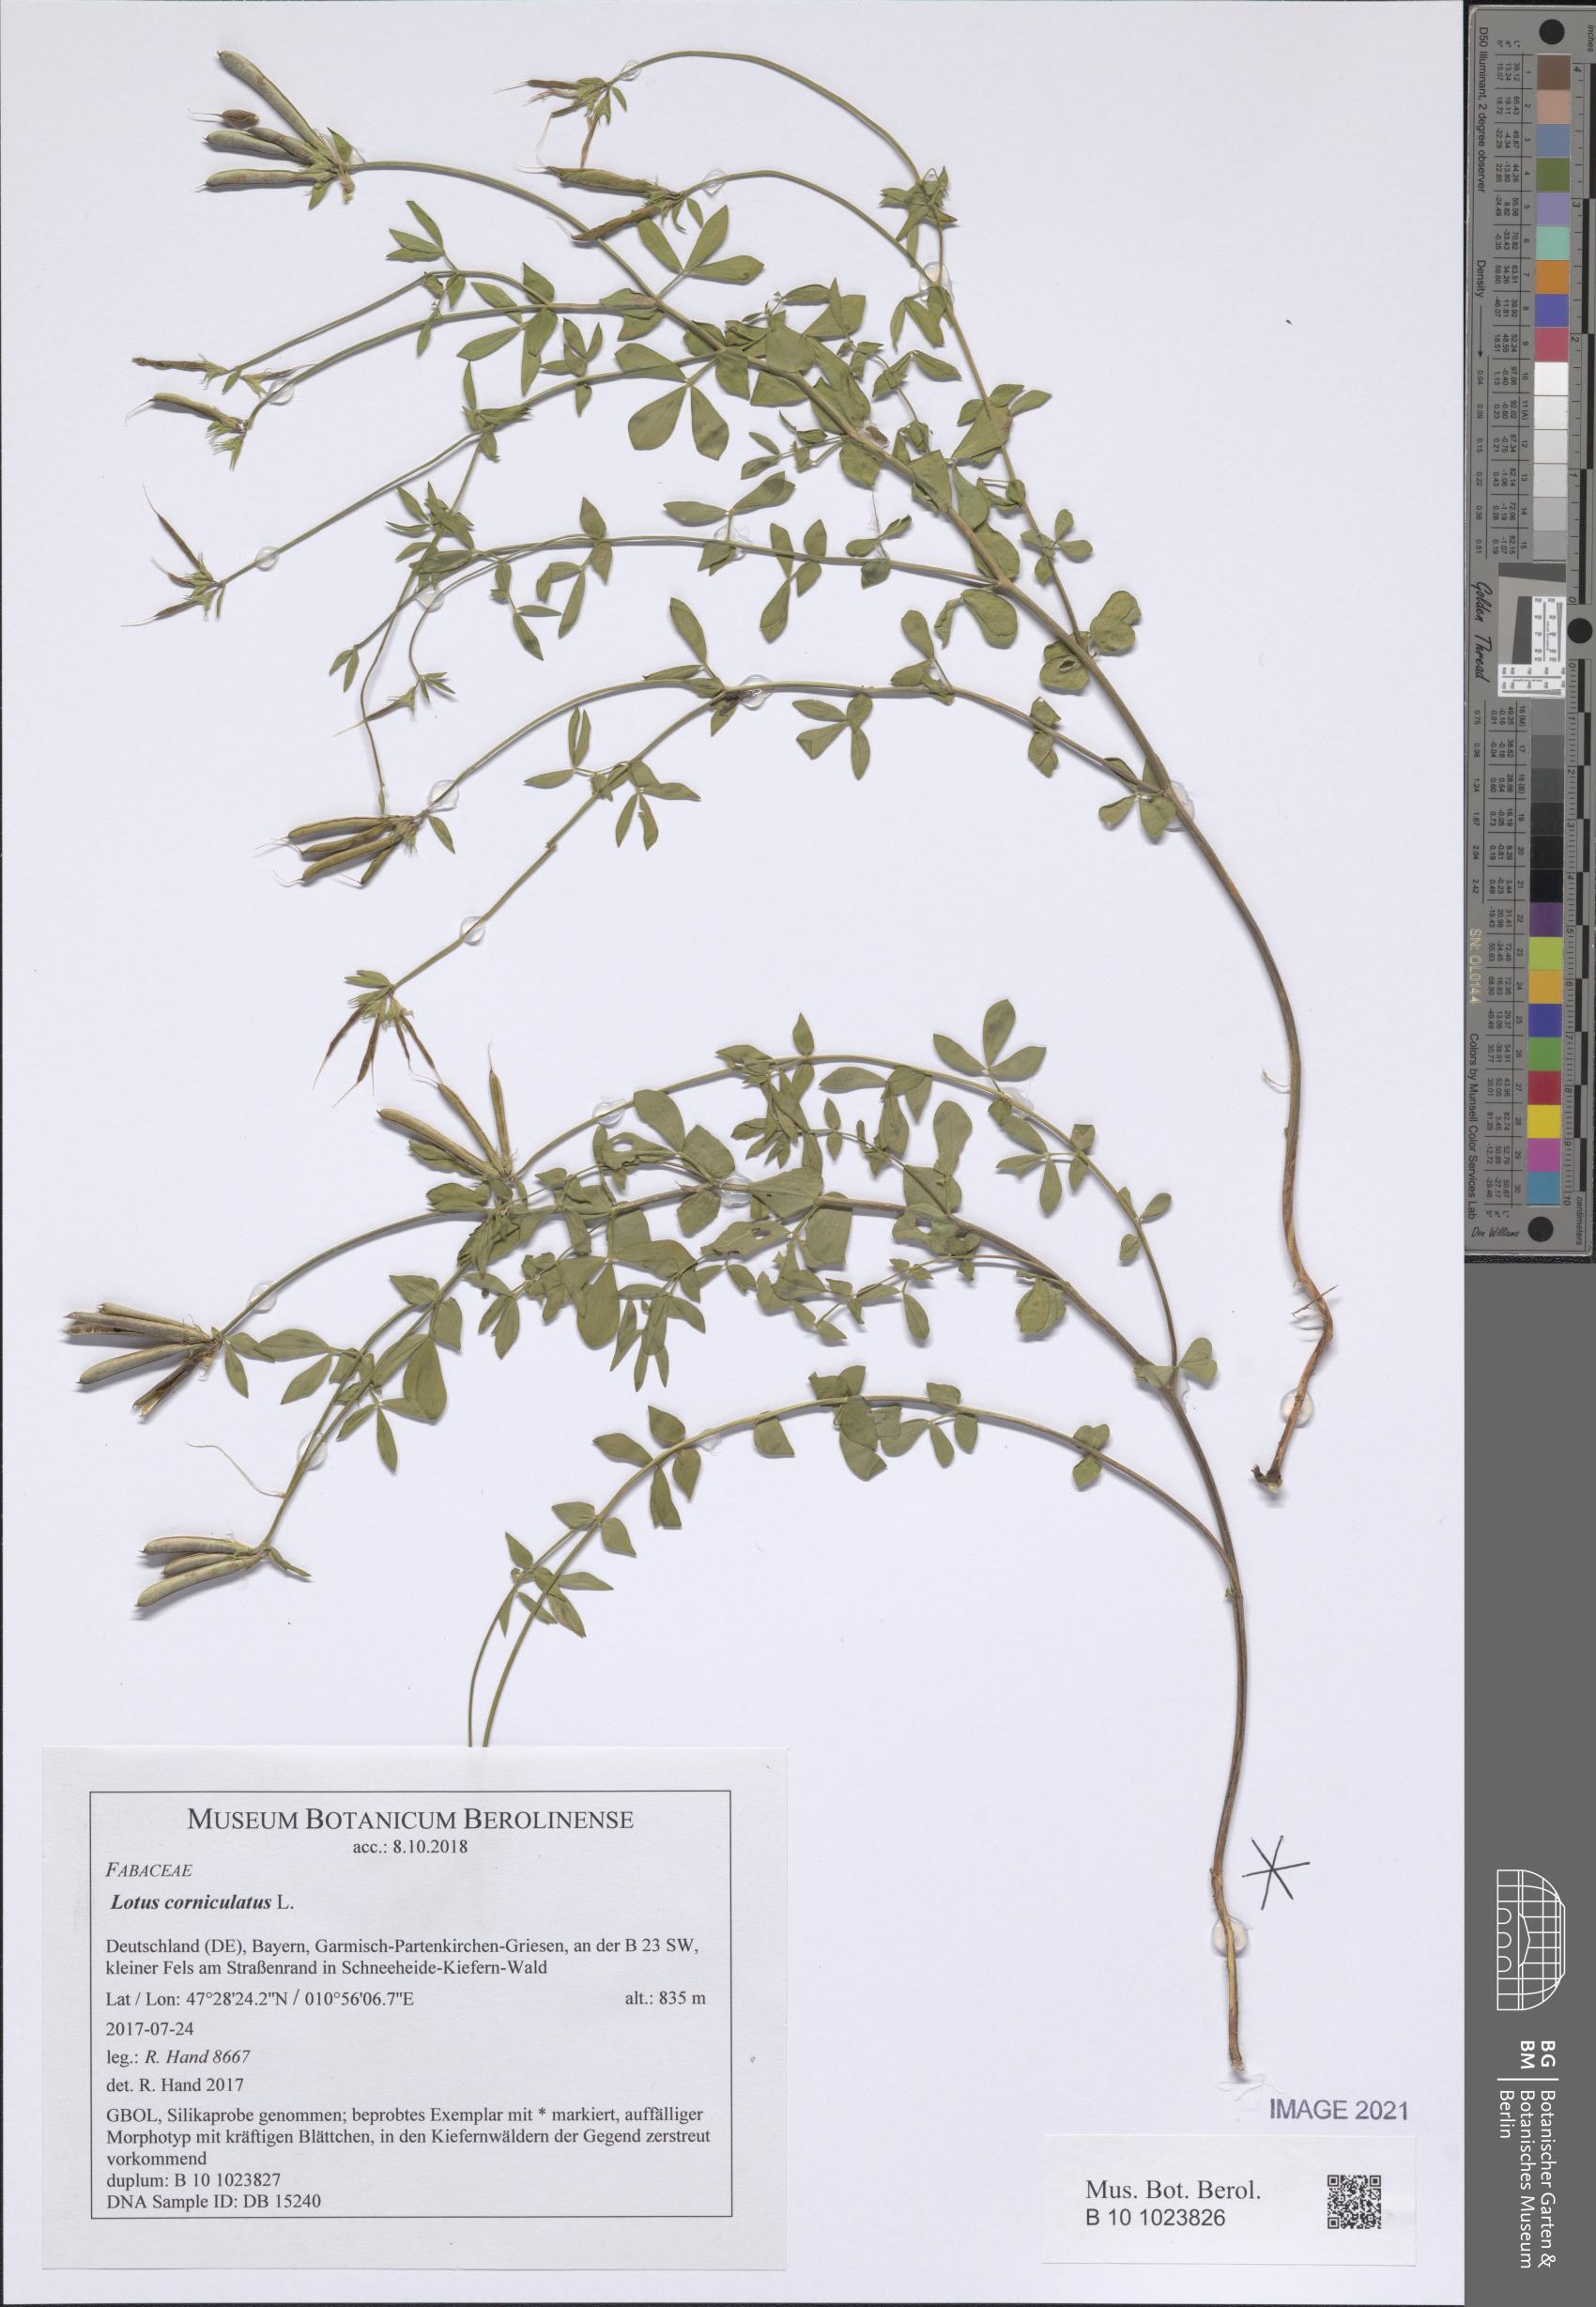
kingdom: Plantae
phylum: Tracheophyta
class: Magnoliopsida
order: Fabales
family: Fabaceae
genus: Lotus
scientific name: Lotus corniculatus
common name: Common bird's-foot-trefoil
